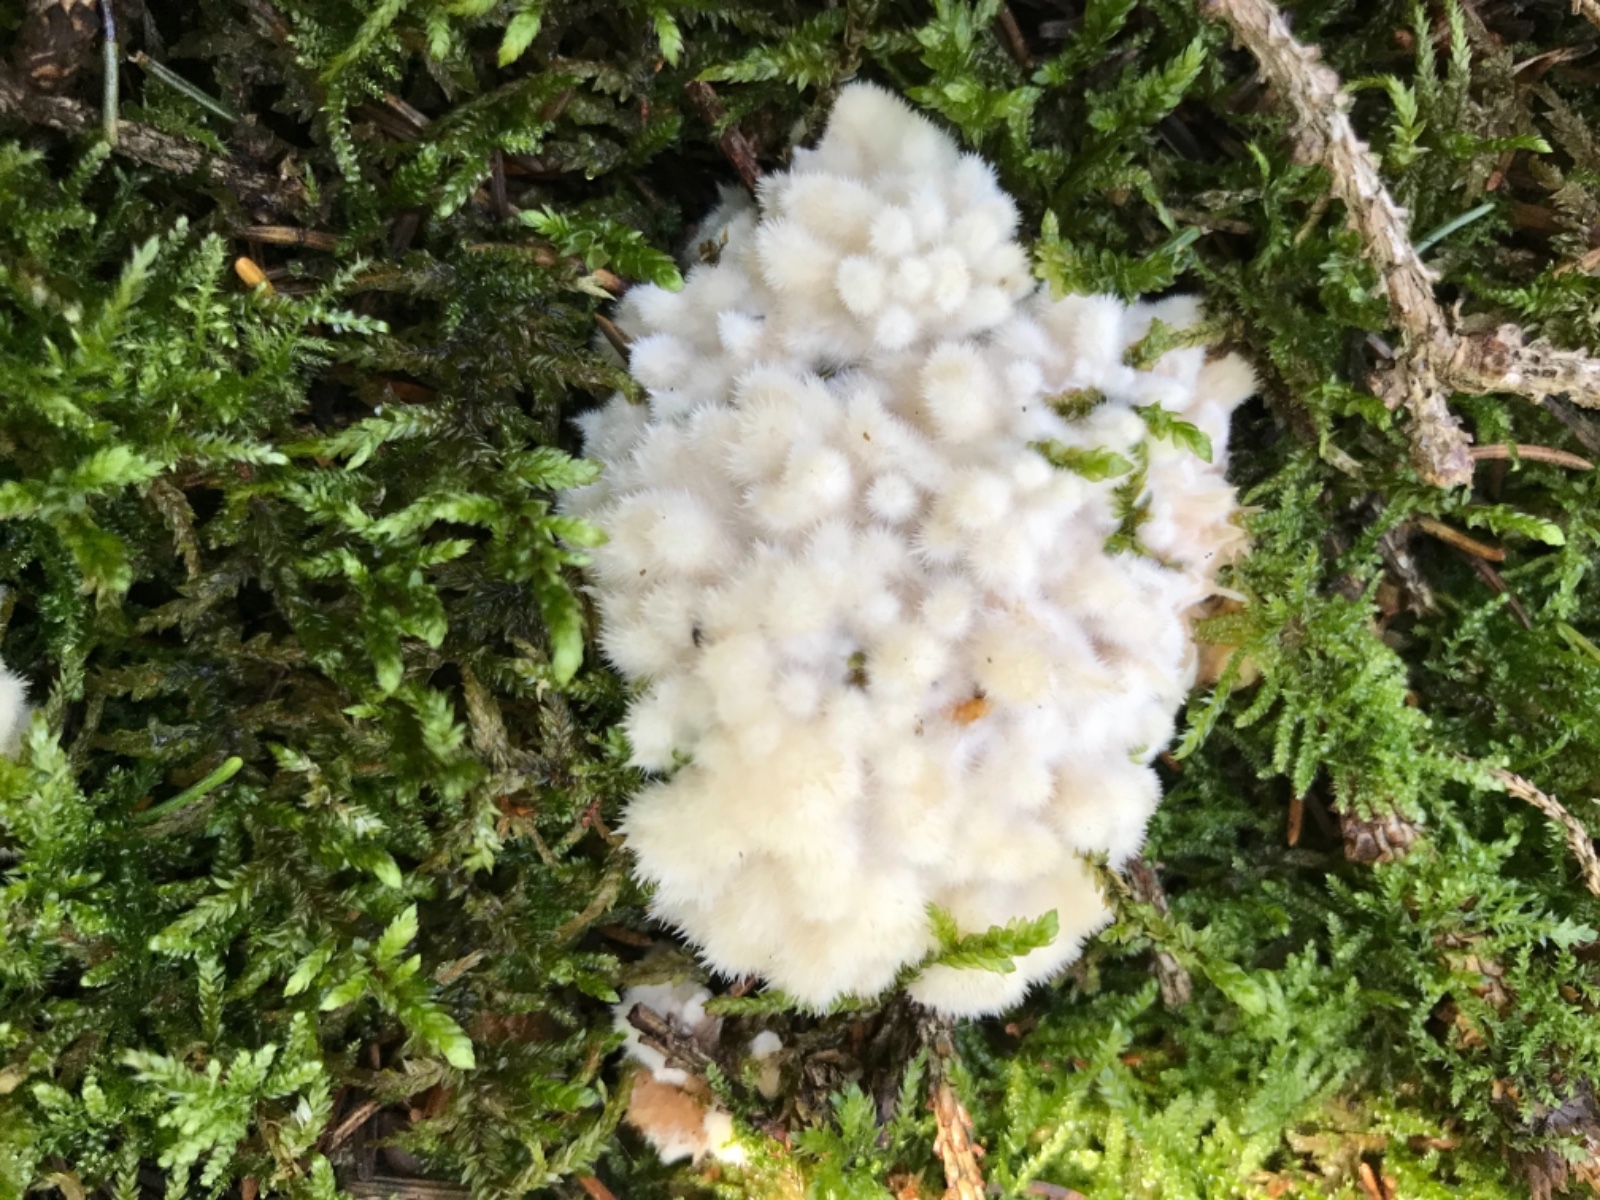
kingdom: Fungi
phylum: Basidiomycota
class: Agaricomycetes
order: Polyporales
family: Dacryobolaceae
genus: Postia
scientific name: Postia ptychogaster
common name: støvende kødporesvamp
